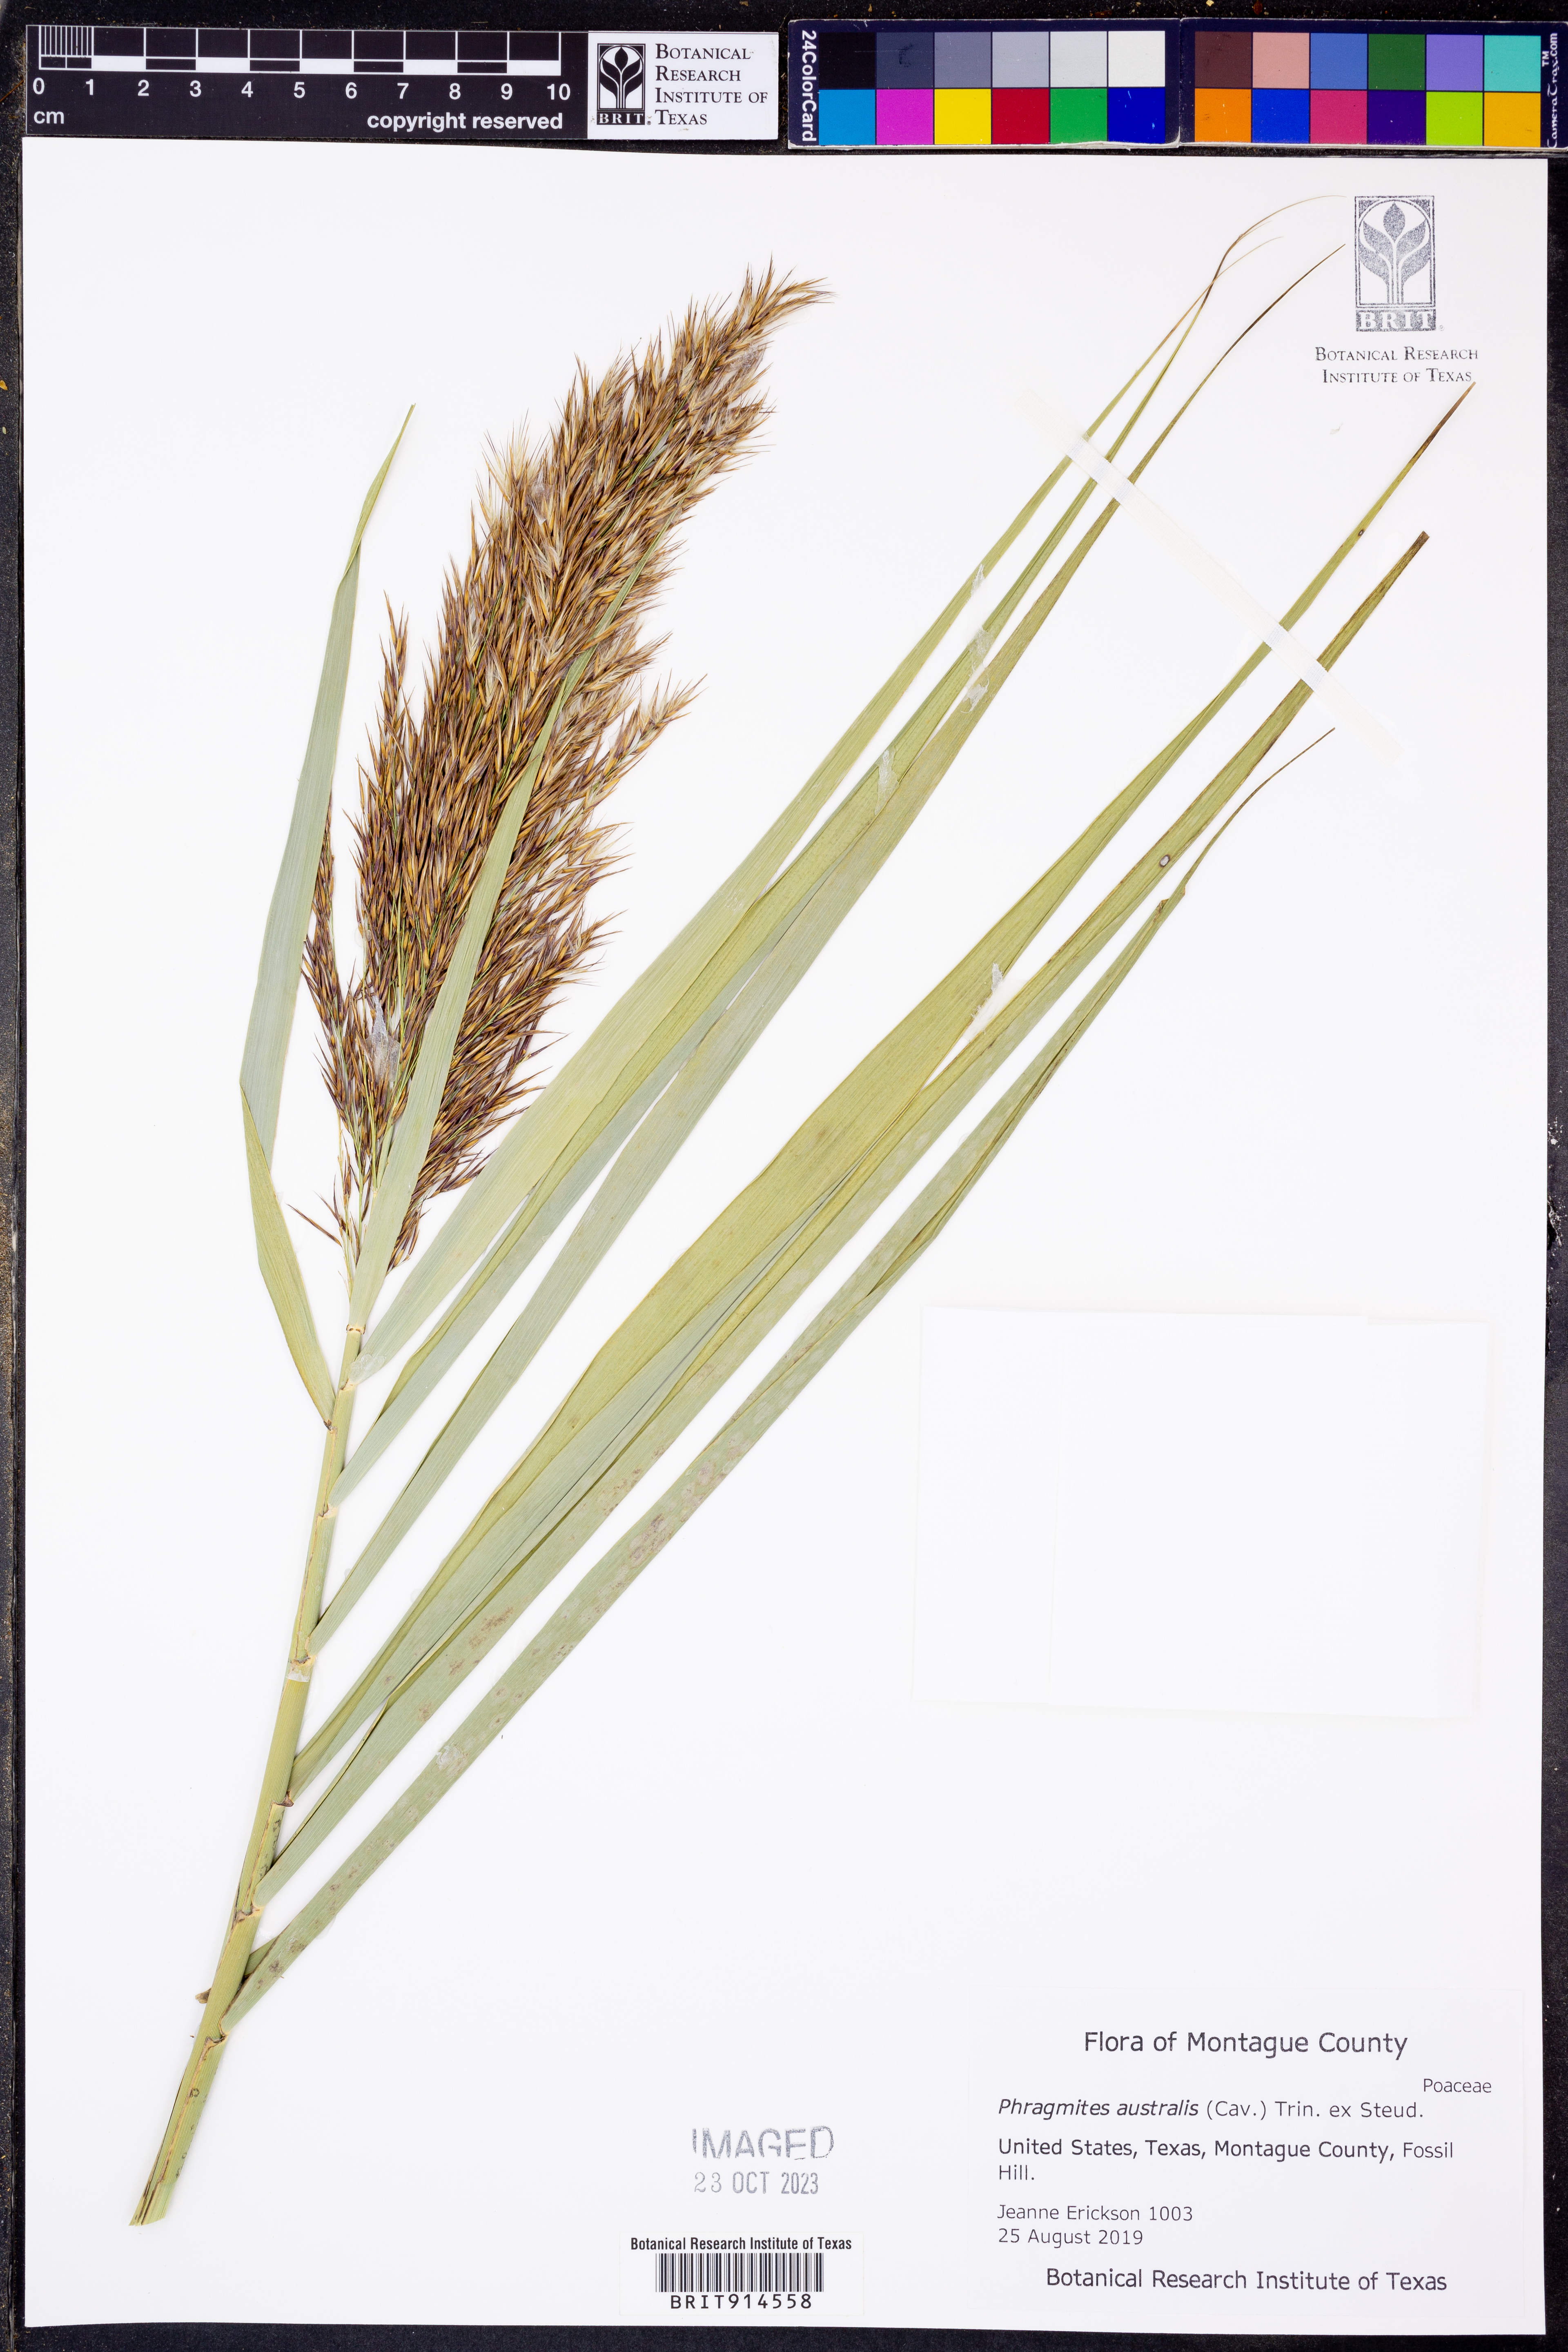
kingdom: Plantae
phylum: Tracheophyta
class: Liliopsida
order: Poales
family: Poaceae
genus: Phragmites
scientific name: Phragmites australis
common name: Common reed
